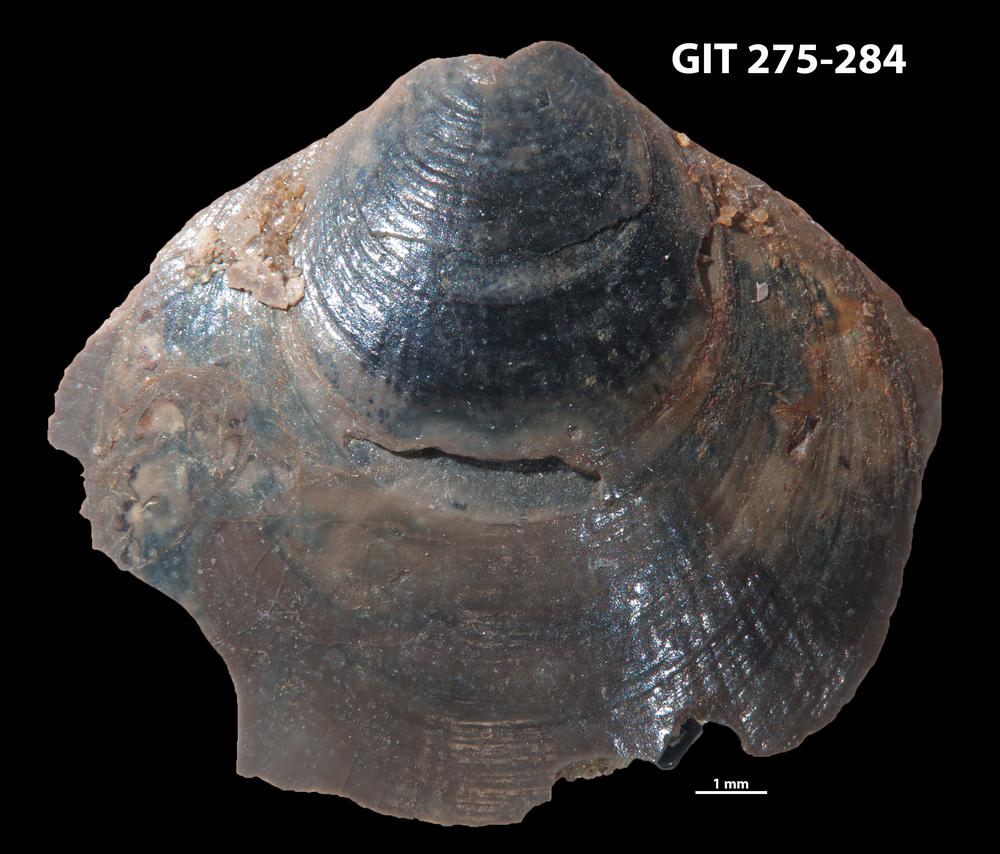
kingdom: Animalia
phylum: Brachiopoda
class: Lingulata
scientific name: Lingulata
